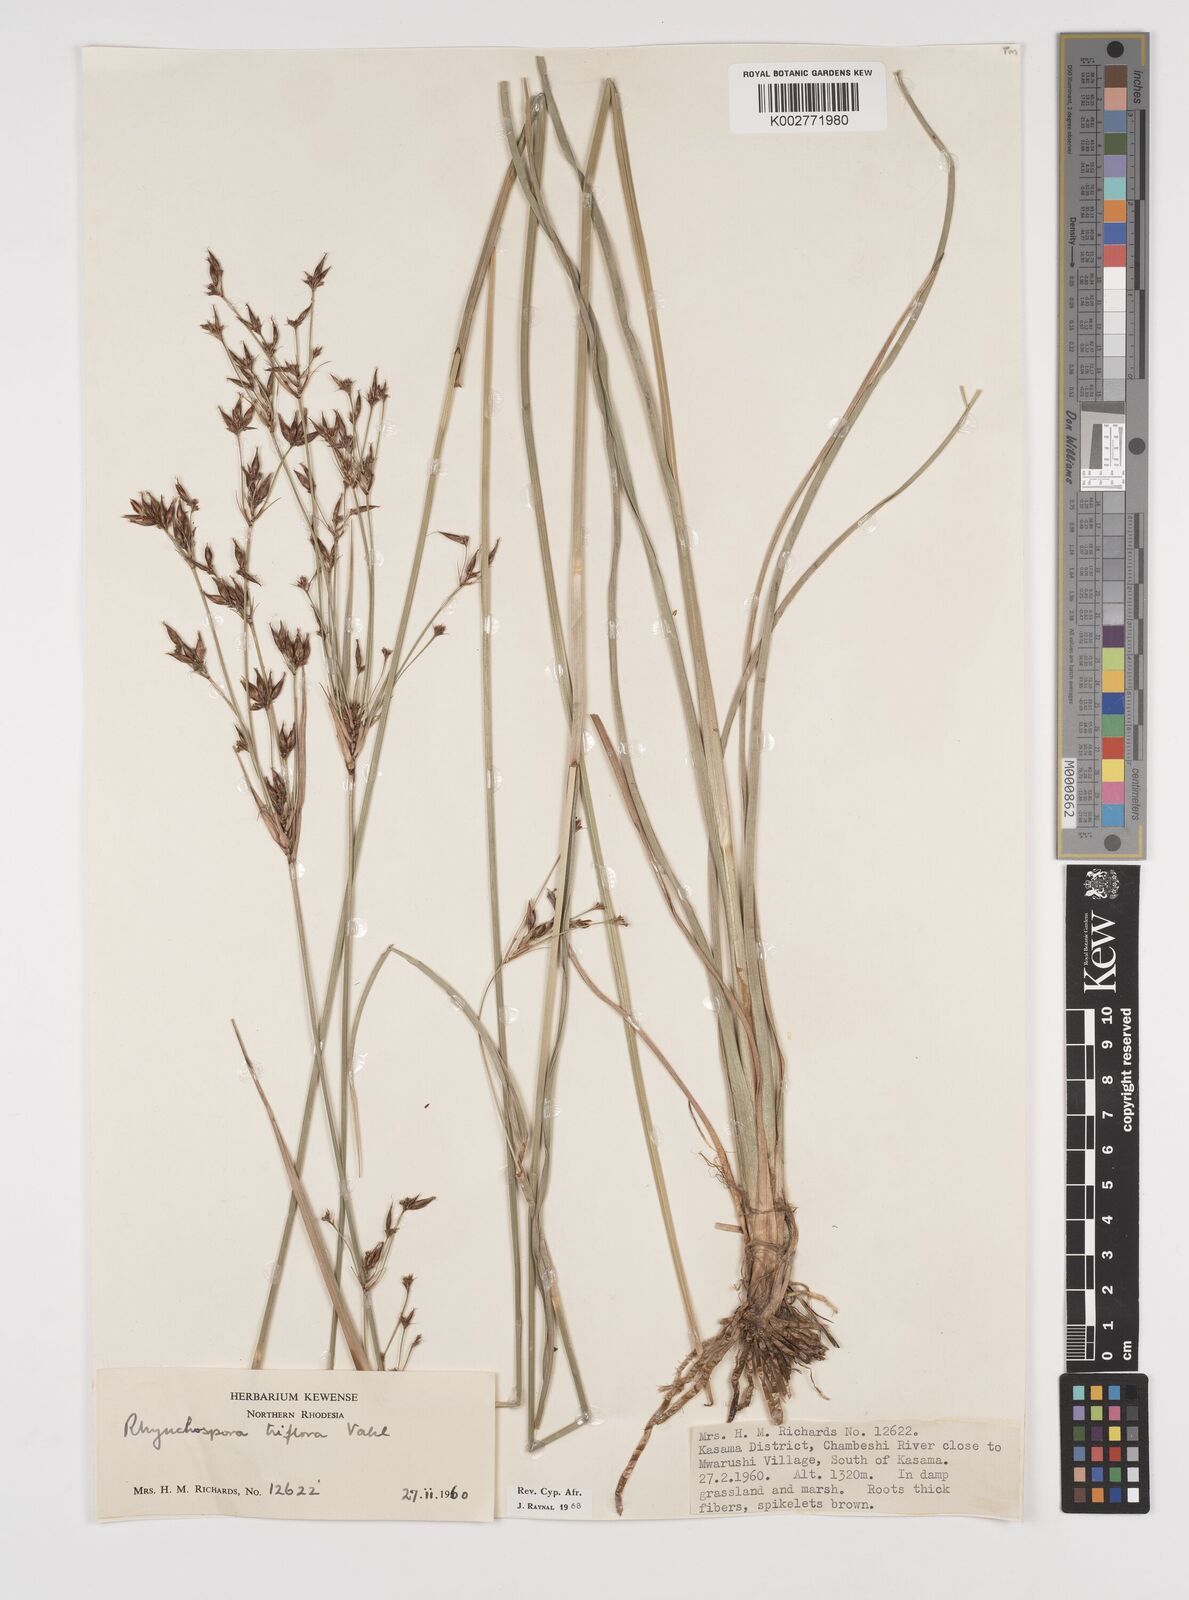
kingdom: Plantae
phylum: Tracheophyta
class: Liliopsida
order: Poales
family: Cyperaceae
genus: Rhynchospora
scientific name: Rhynchospora triflora
